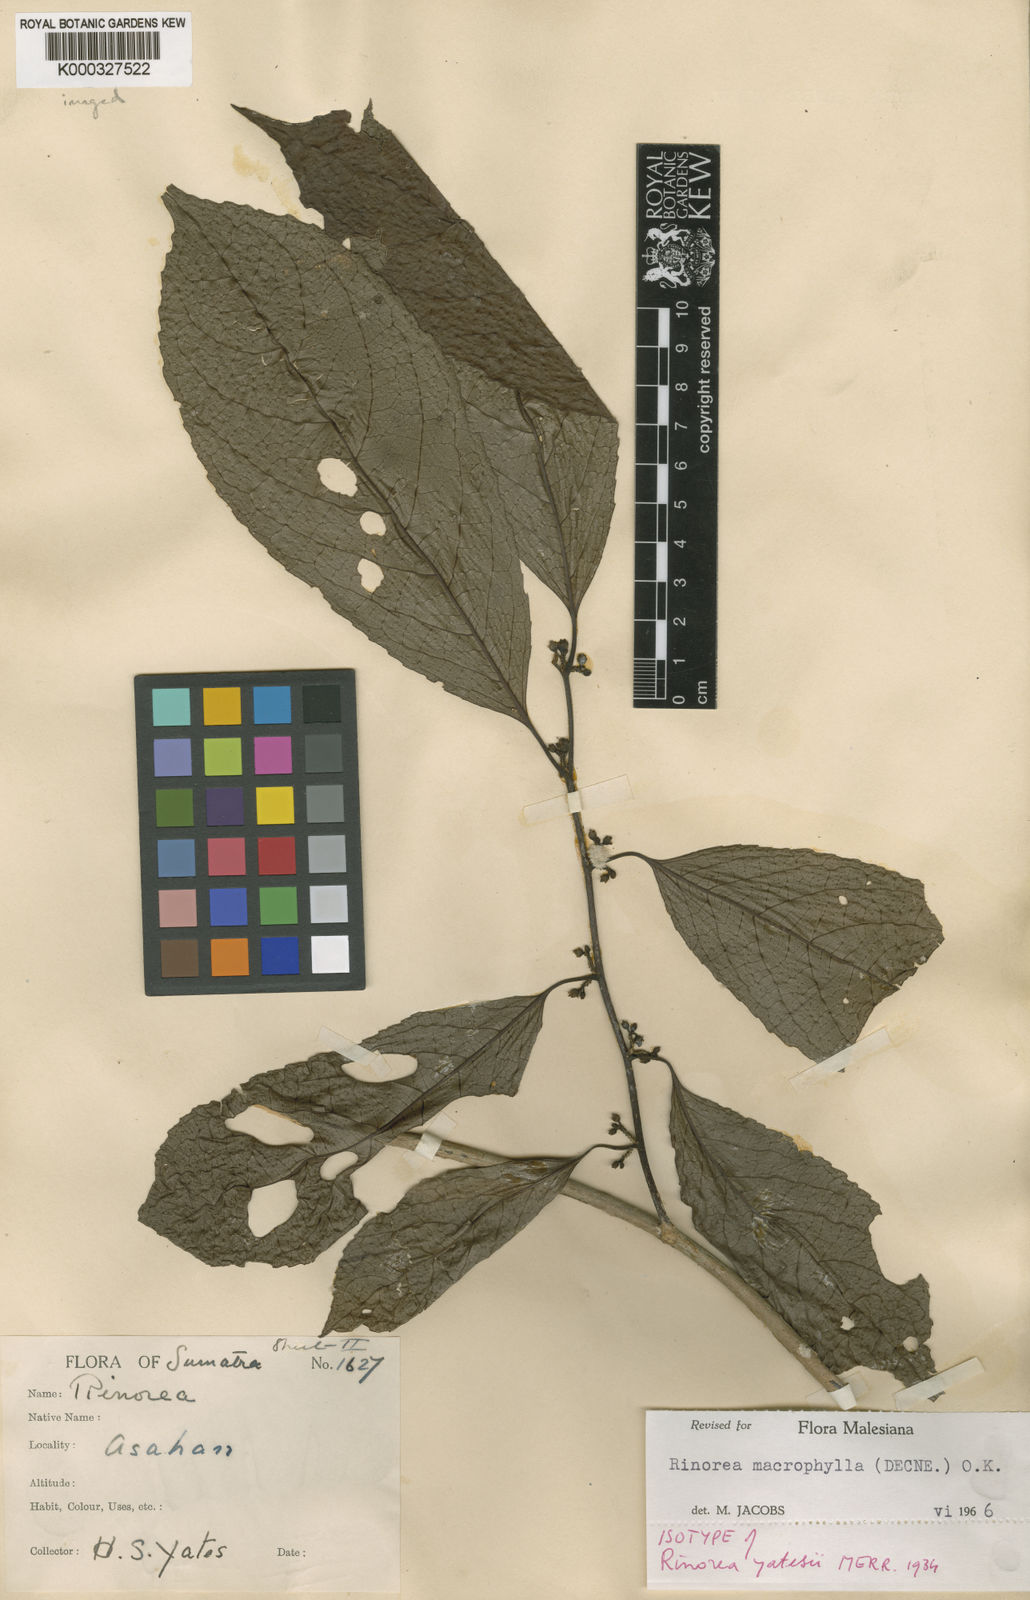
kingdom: Plantae
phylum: Tracheophyta
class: Magnoliopsida
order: Malpighiales
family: Violaceae
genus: Rinorea
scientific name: Rinorea macrophylla
